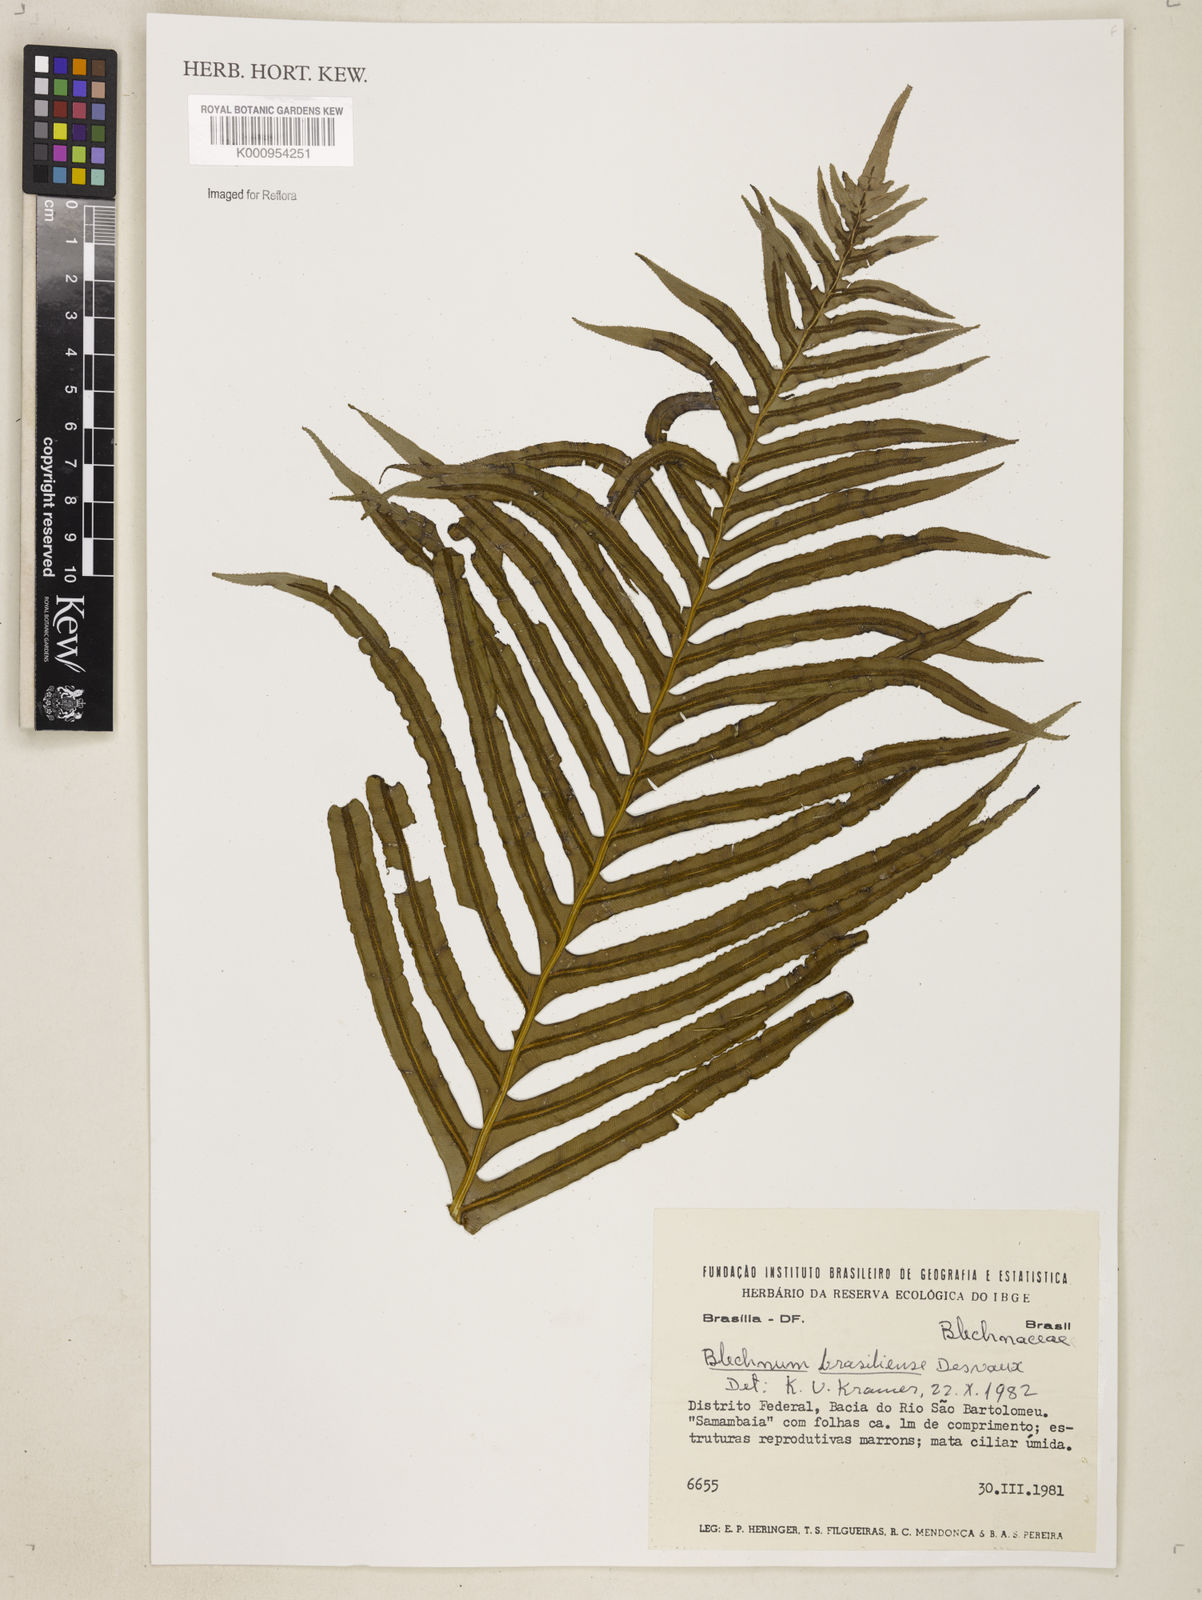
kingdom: Plantae
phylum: Tracheophyta
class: Polypodiopsida
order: Polypodiales
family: Blechnaceae
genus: Neoblechnum
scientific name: Neoblechnum brasiliense
